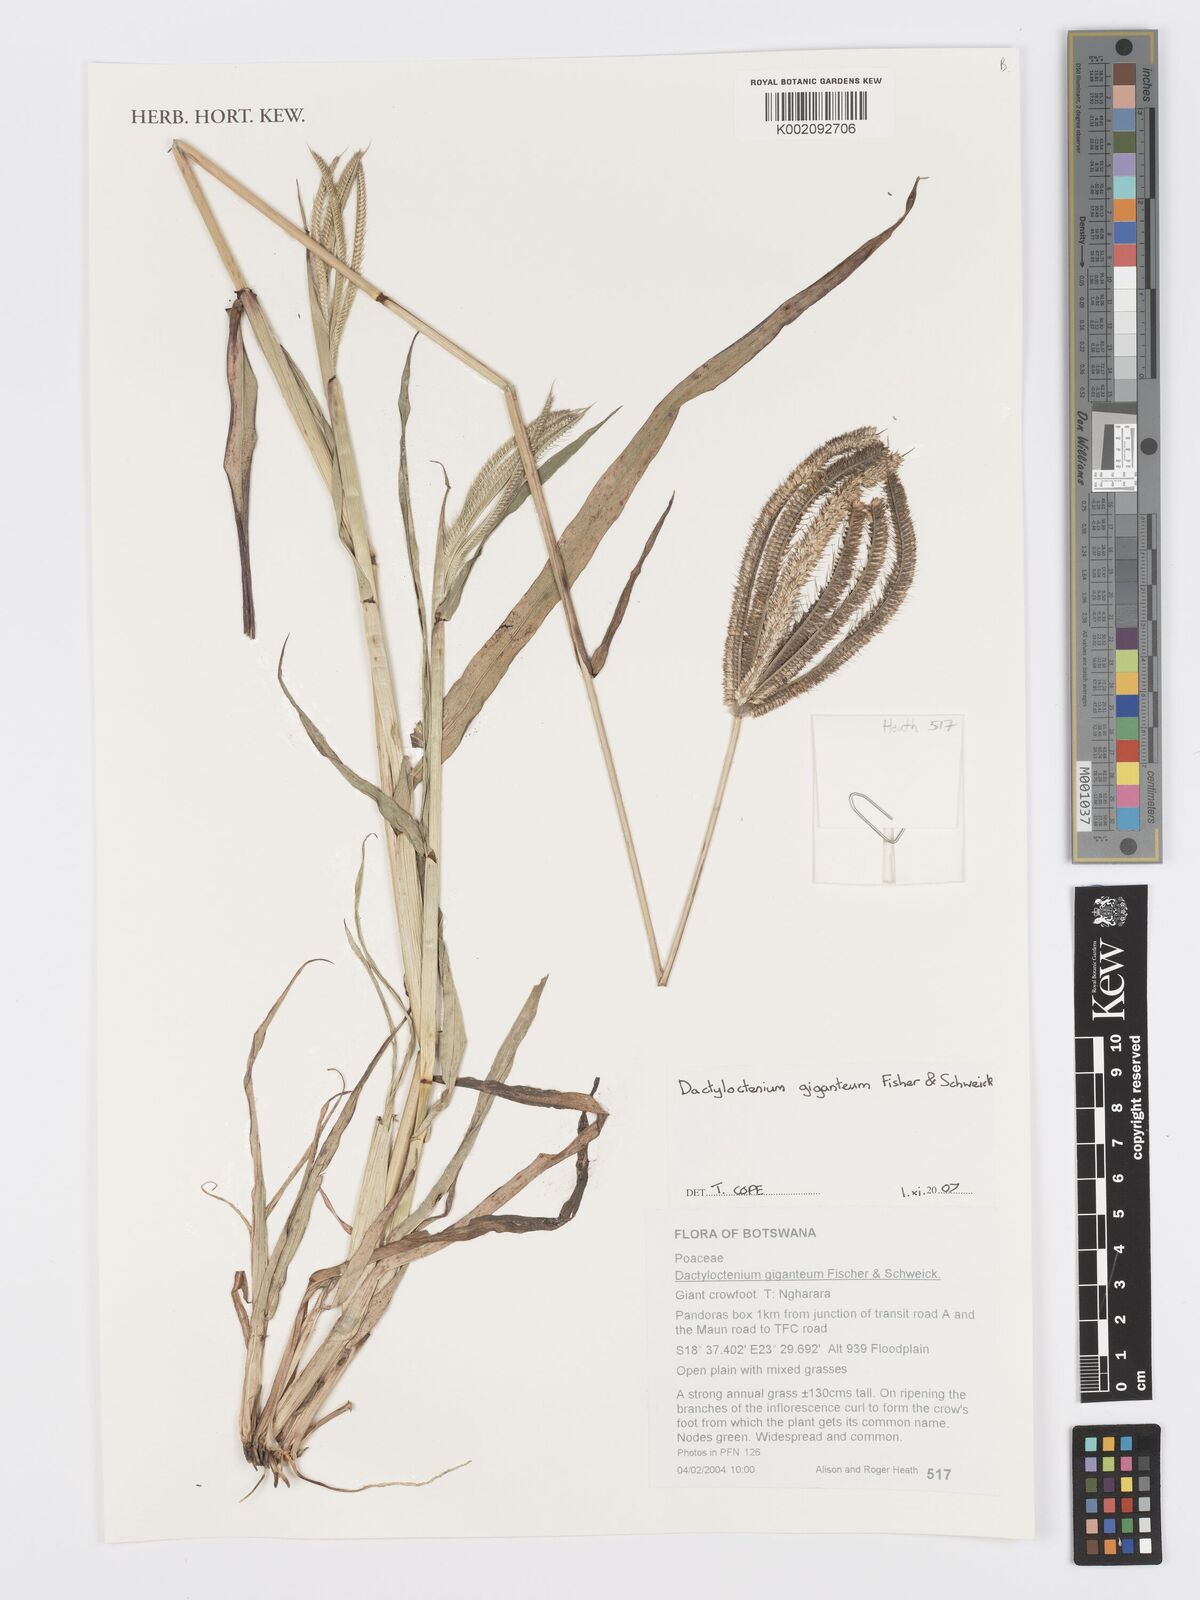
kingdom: Plantae
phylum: Tracheophyta
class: Liliopsida
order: Poales
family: Poaceae
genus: Dactyloctenium
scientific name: Dactyloctenium giganteum
